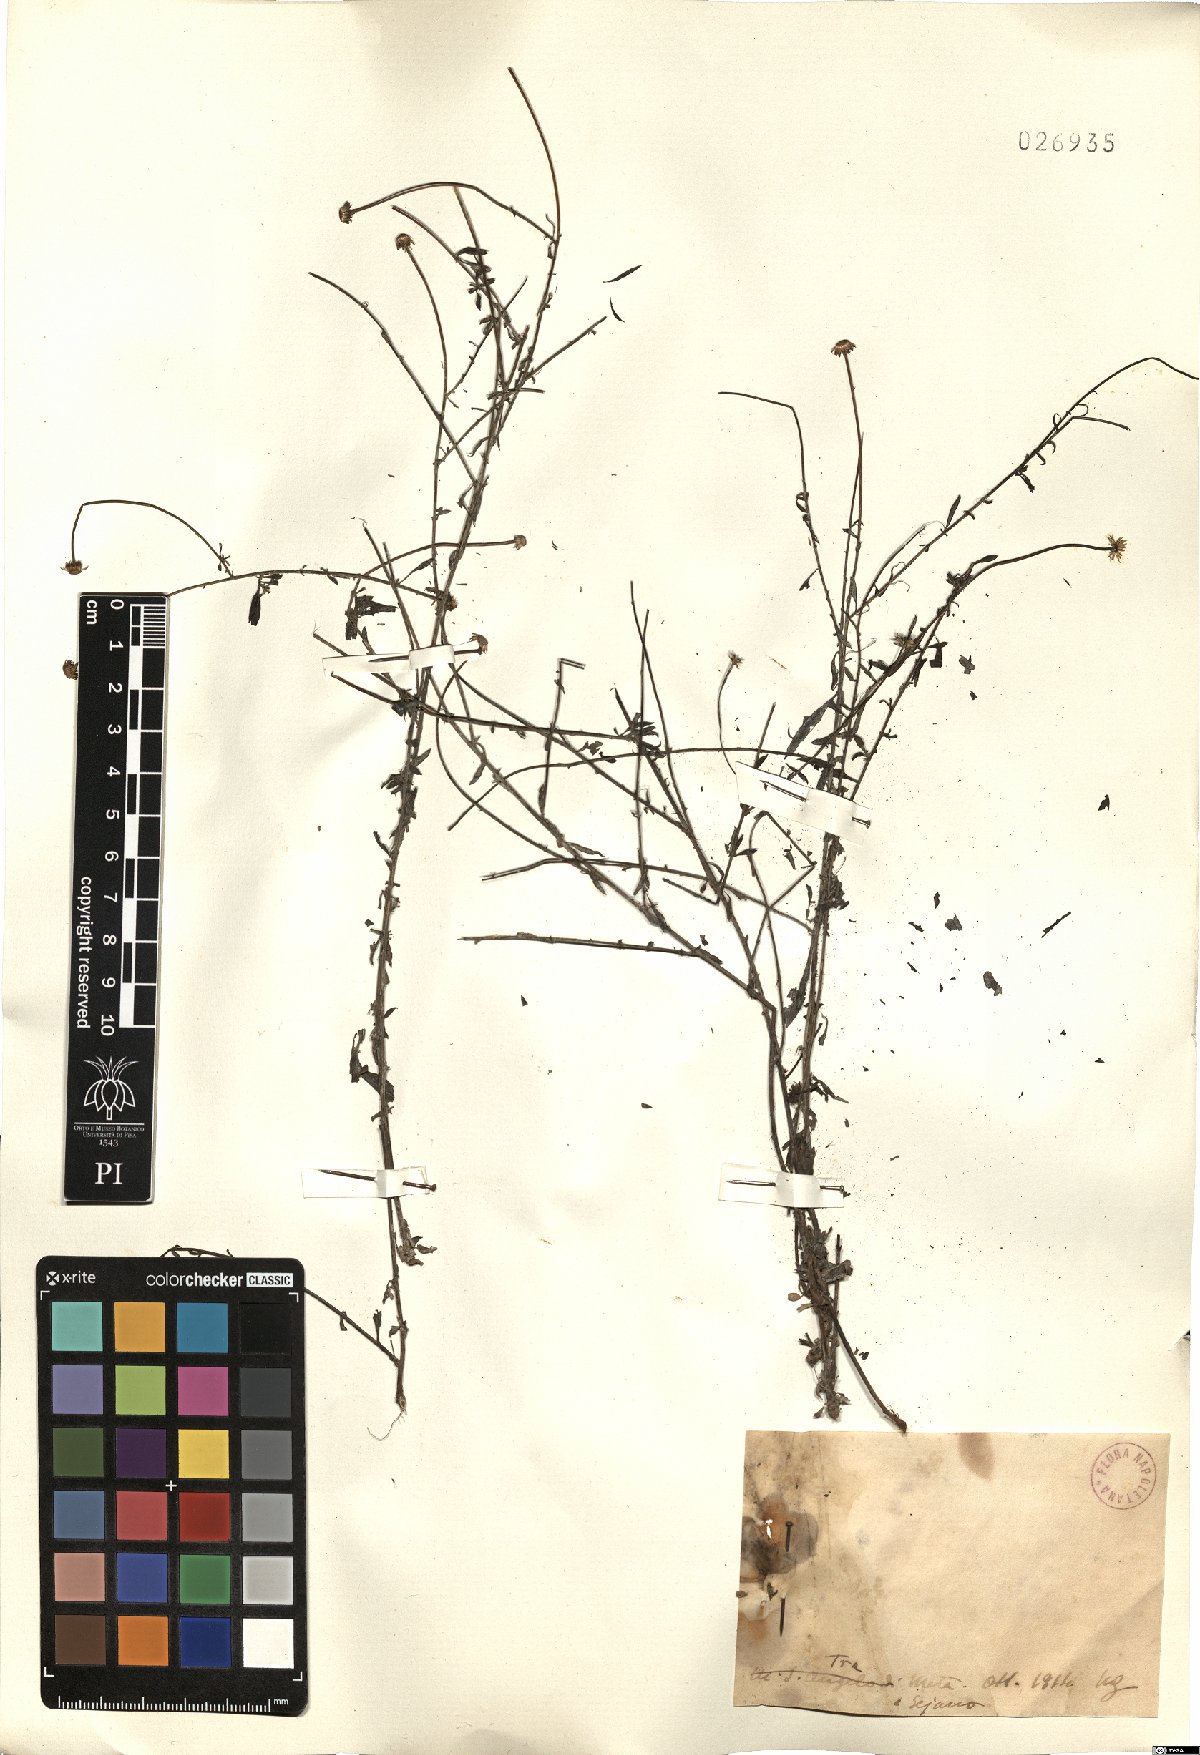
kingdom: Plantae
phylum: Tracheophyta
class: Magnoliopsida
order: Asterales
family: Asteraceae
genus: Erigeron
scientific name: Erigeron
